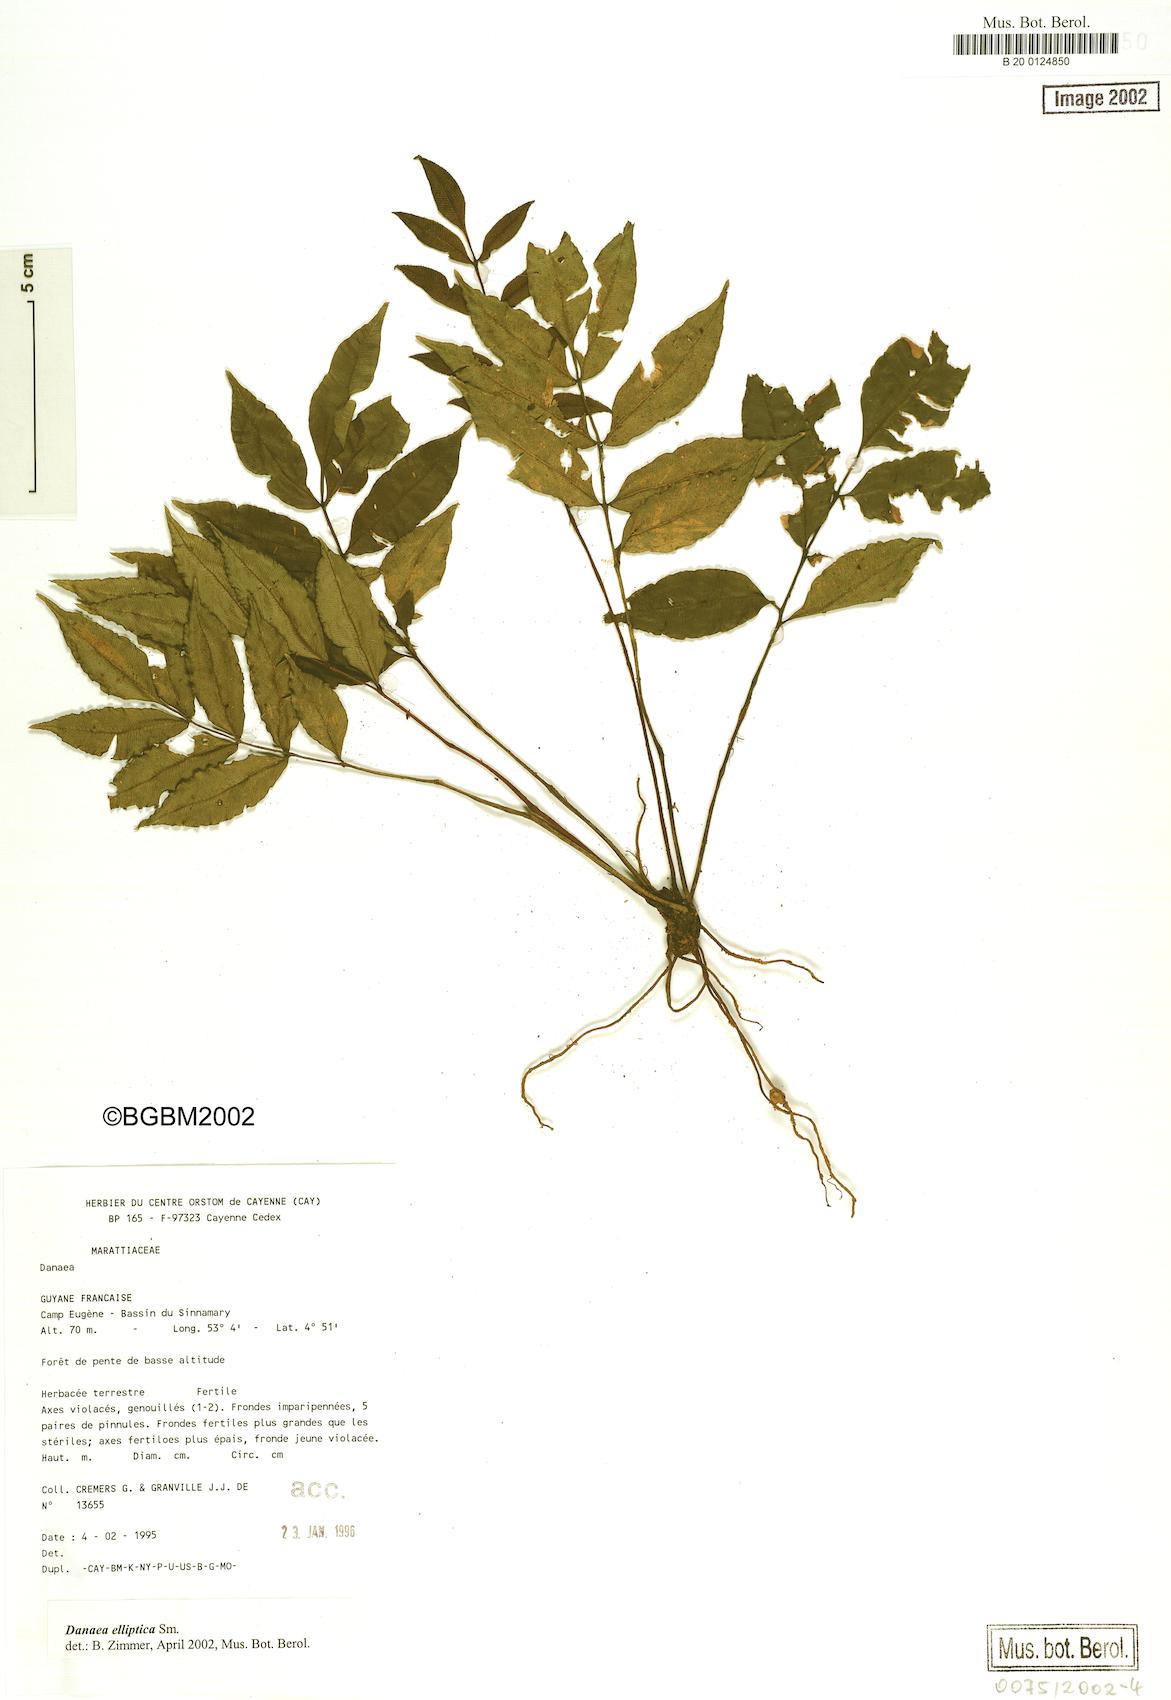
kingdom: Plantae
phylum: Tracheophyta
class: Polypodiopsida
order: Marattiales
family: Marattiaceae
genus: Danaea
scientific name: Danaea nodosa
